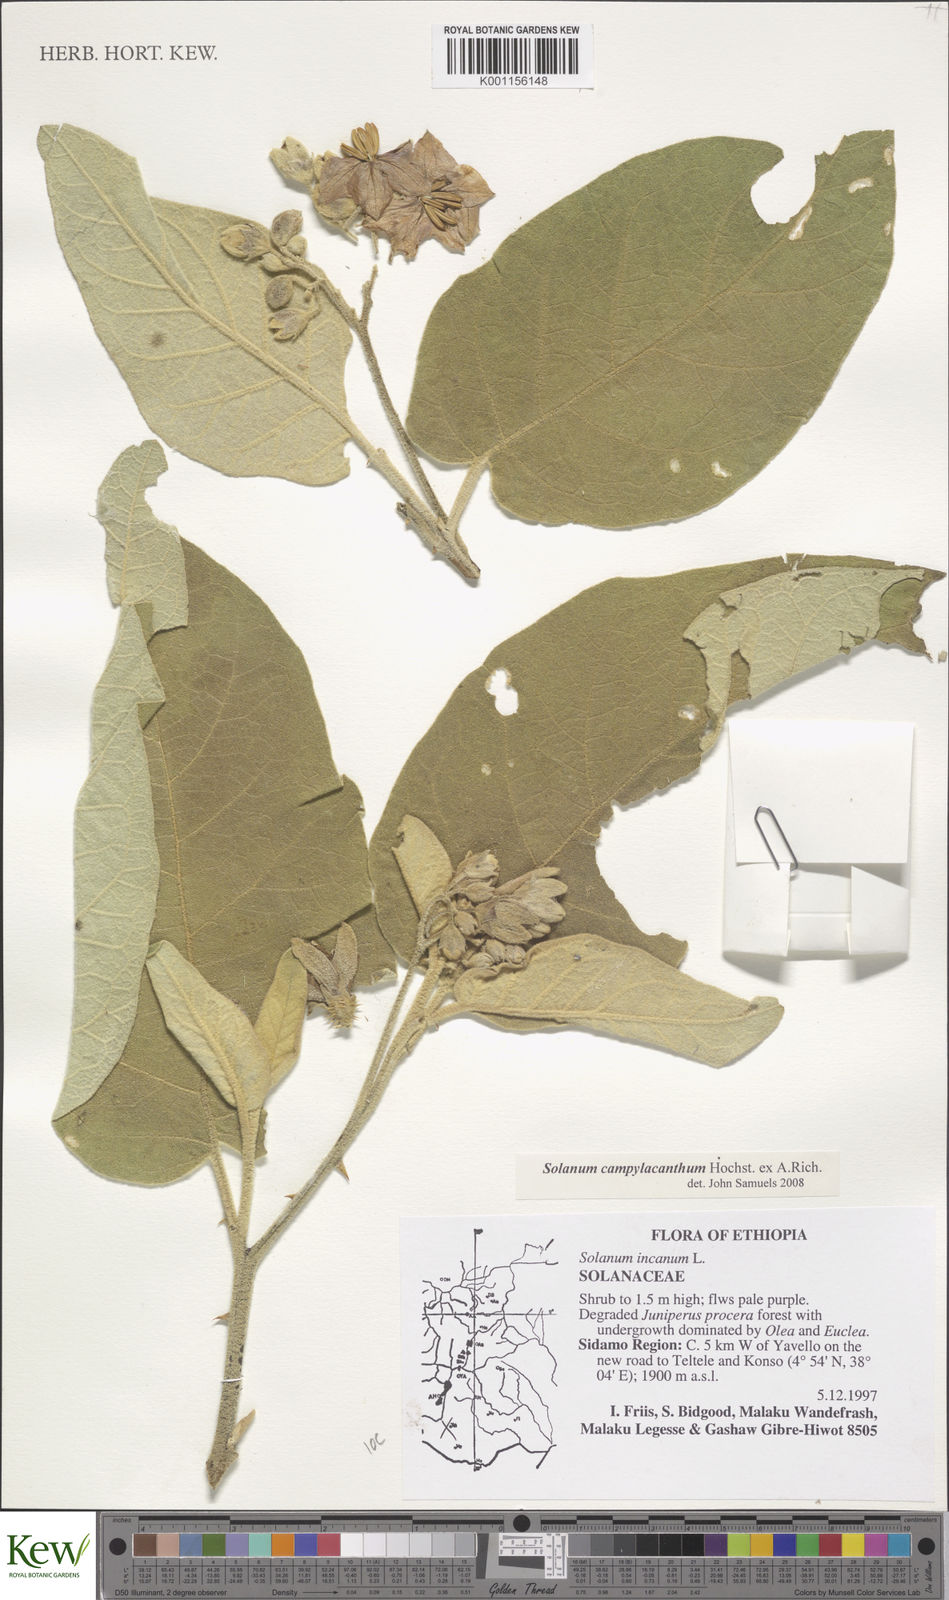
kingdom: Plantae
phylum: Tracheophyta
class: Magnoliopsida
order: Solanales
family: Solanaceae
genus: Solanum
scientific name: Solanum campylacanthum
